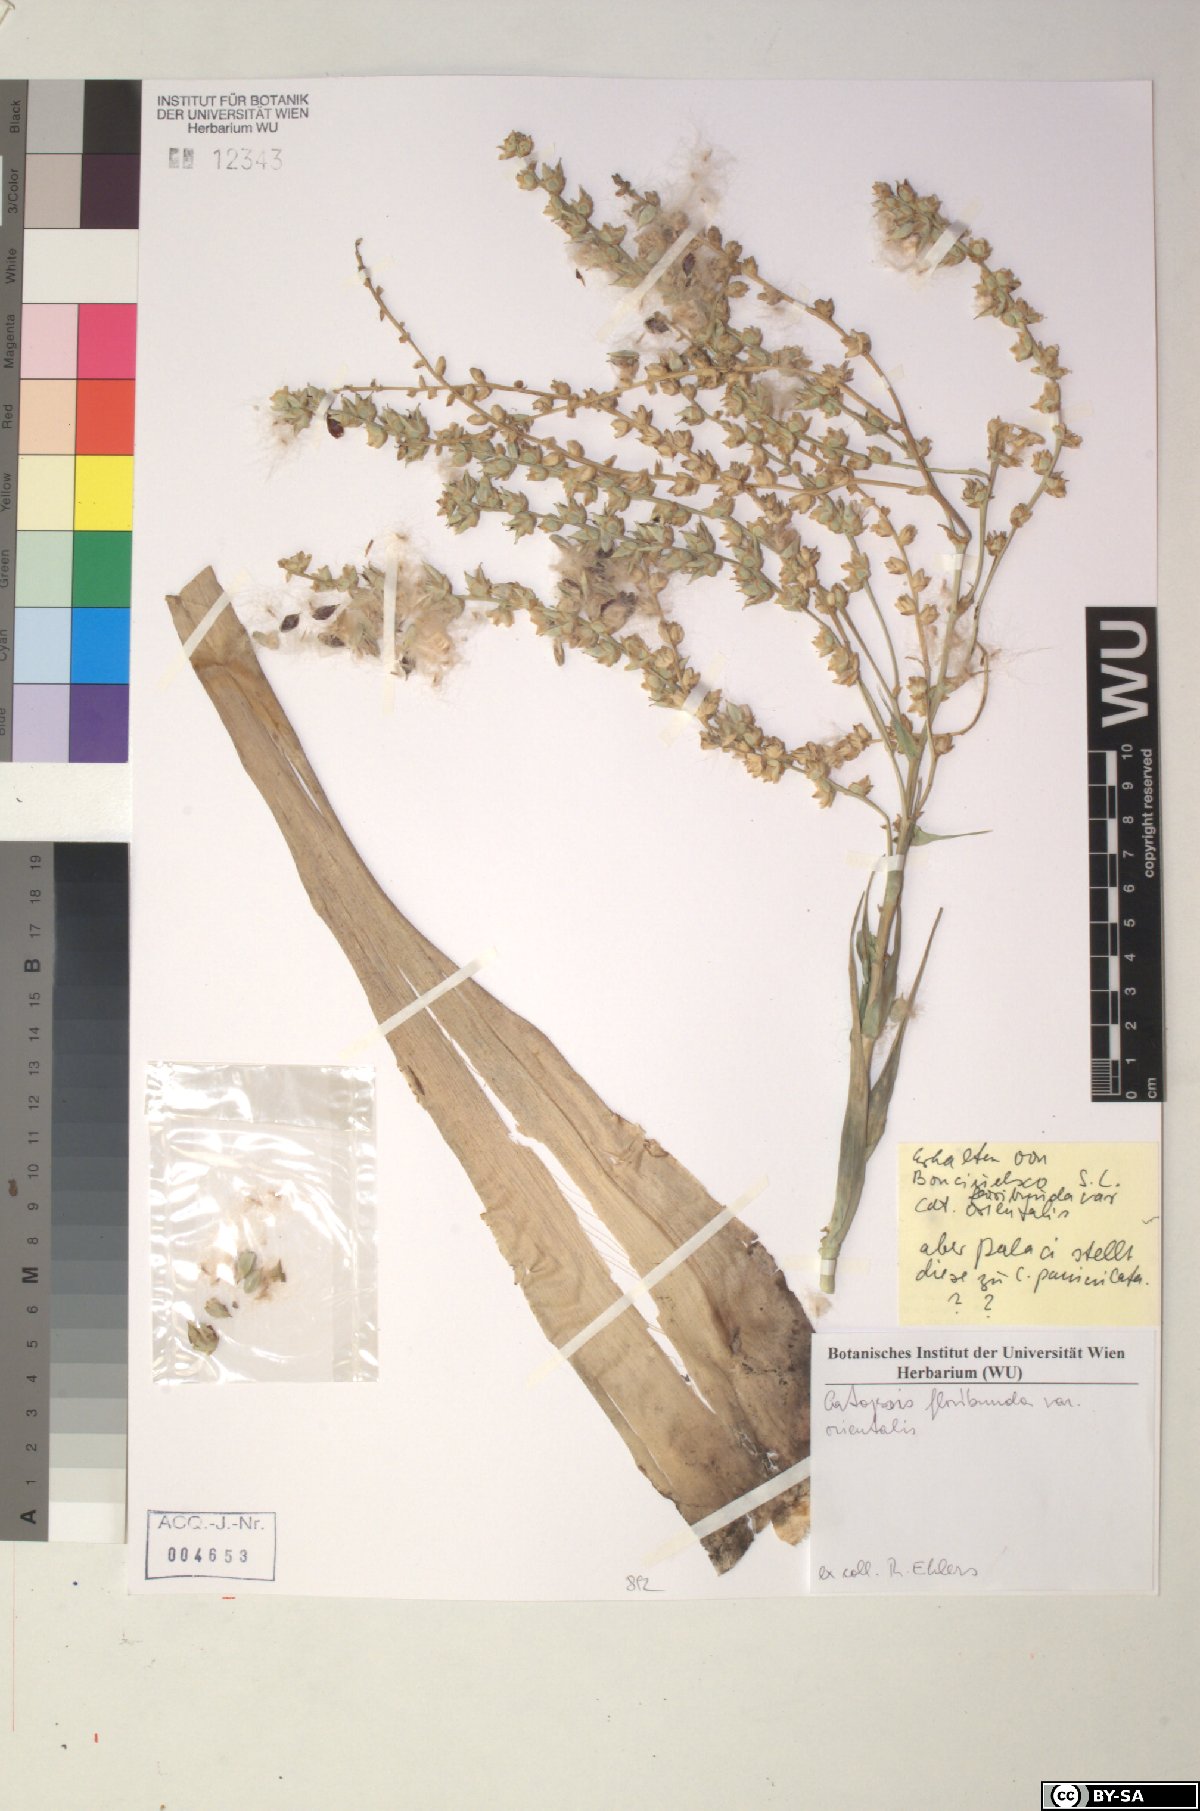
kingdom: Plantae
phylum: Tracheophyta
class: Liliopsida
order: Poales
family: Bromeliaceae
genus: Catopsis
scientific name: Catopsis floribunda
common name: Florida strap airplant
